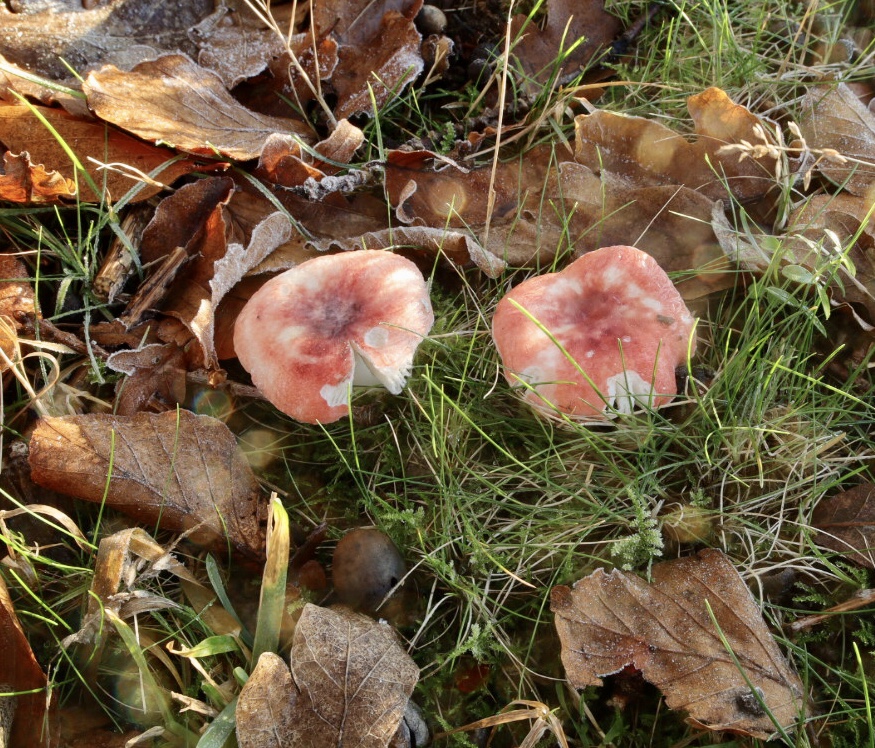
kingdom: Fungi
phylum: Basidiomycota
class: Agaricomycetes
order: Russulales
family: Russulaceae
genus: Russula
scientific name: Russula
